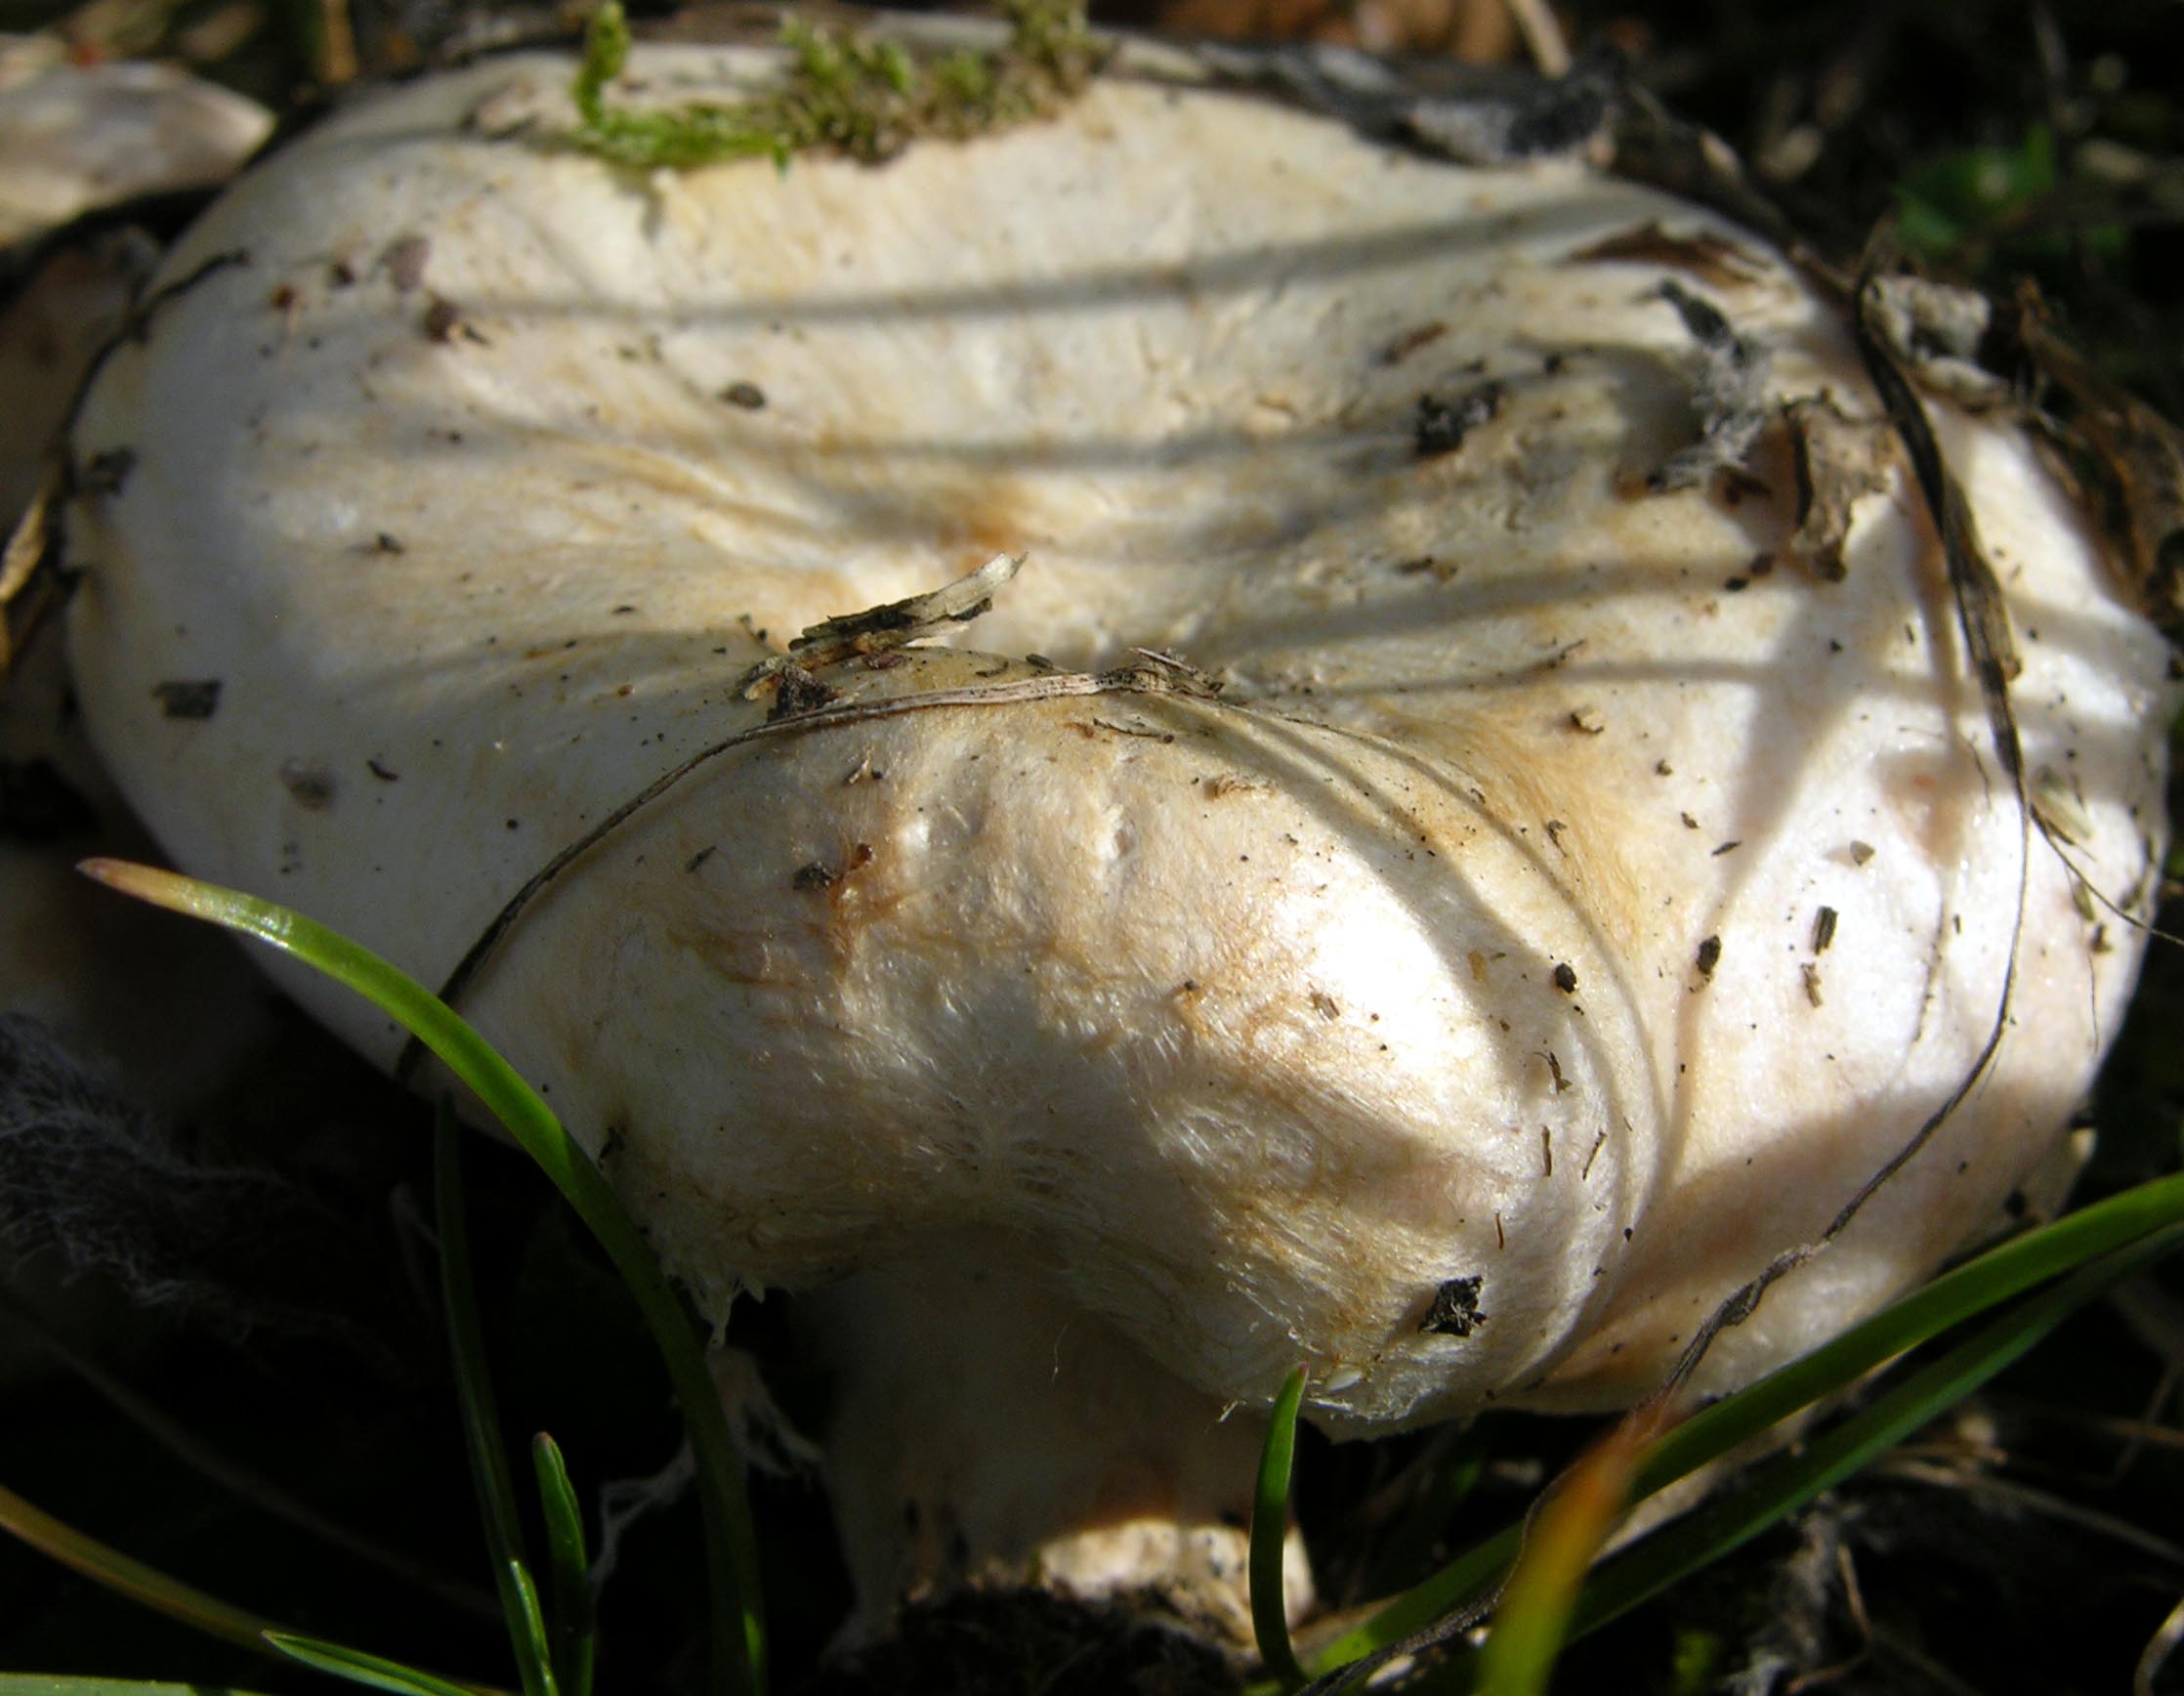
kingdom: Fungi
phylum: Basidiomycota
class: Agaricomycetes
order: Russulales
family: Russulaceae
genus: Lactarius
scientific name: Lactarius torminosus
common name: skægget mælkehat
